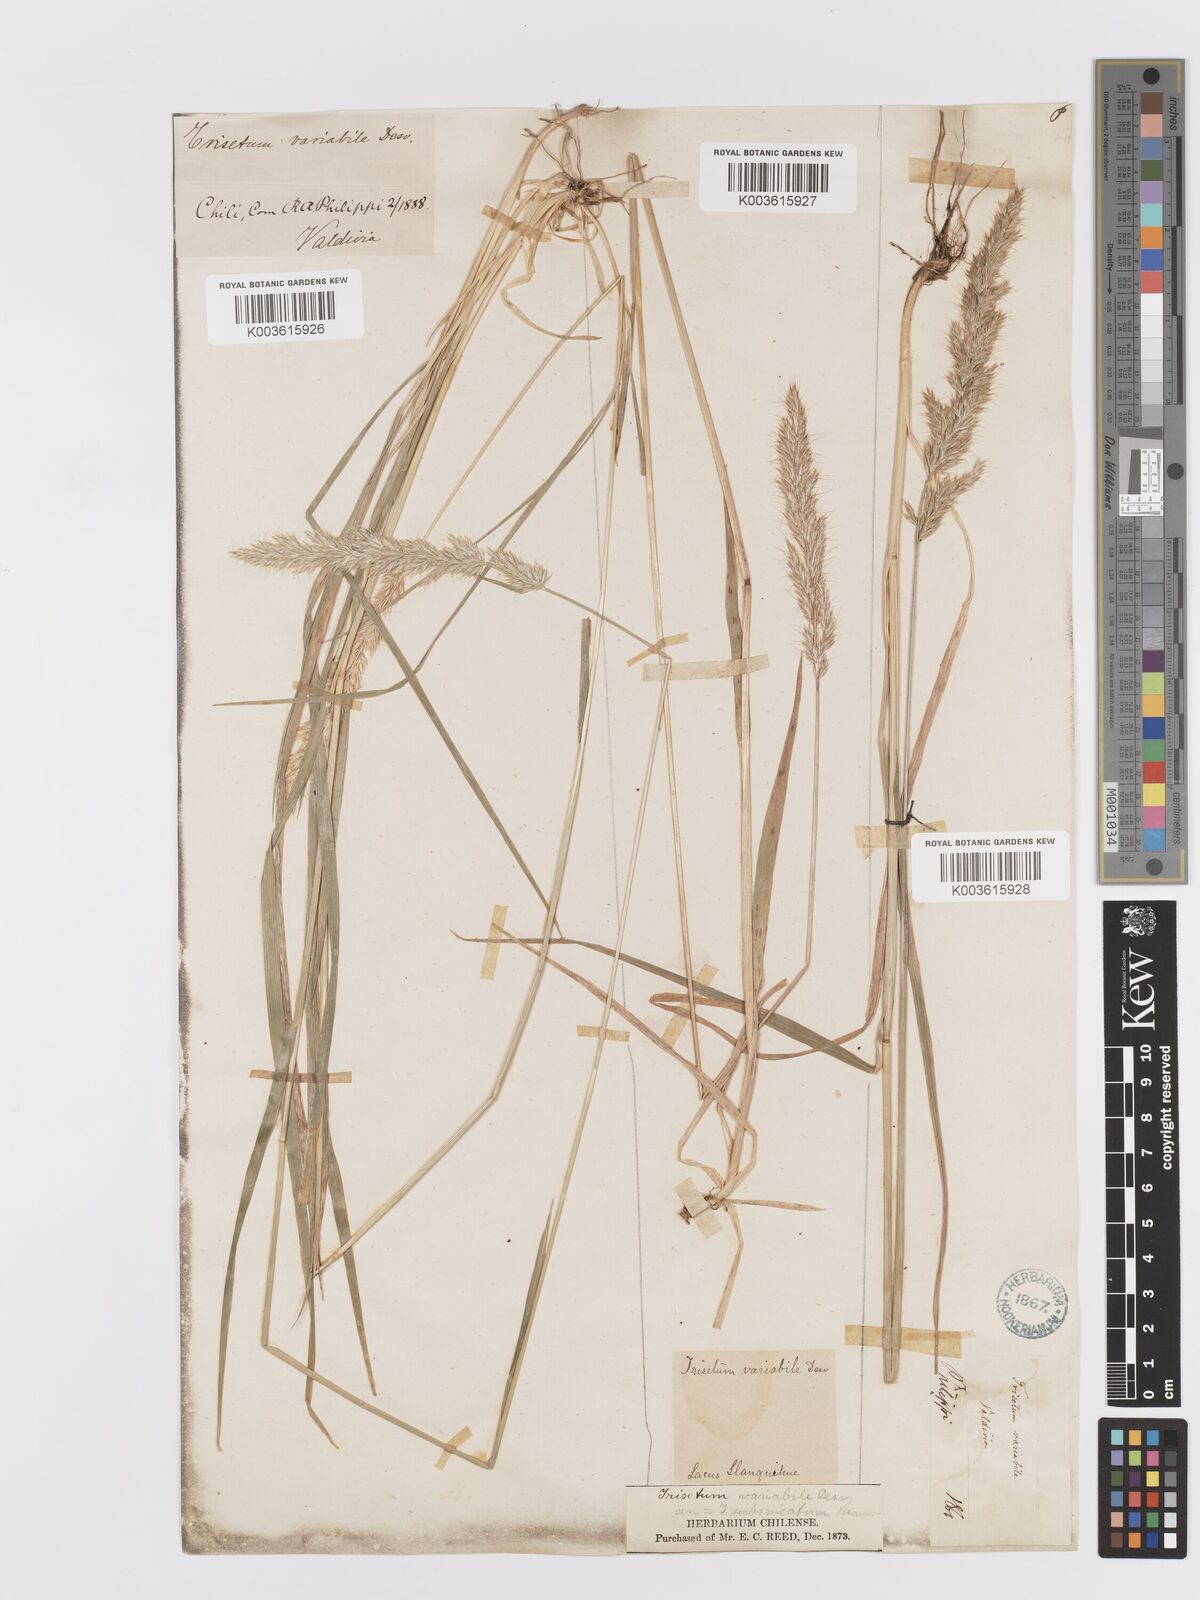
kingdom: Plantae
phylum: Tracheophyta
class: Liliopsida
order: Poales
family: Poaceae
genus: Koeleria
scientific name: Koeleria spicata
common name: Mountain trisetum
